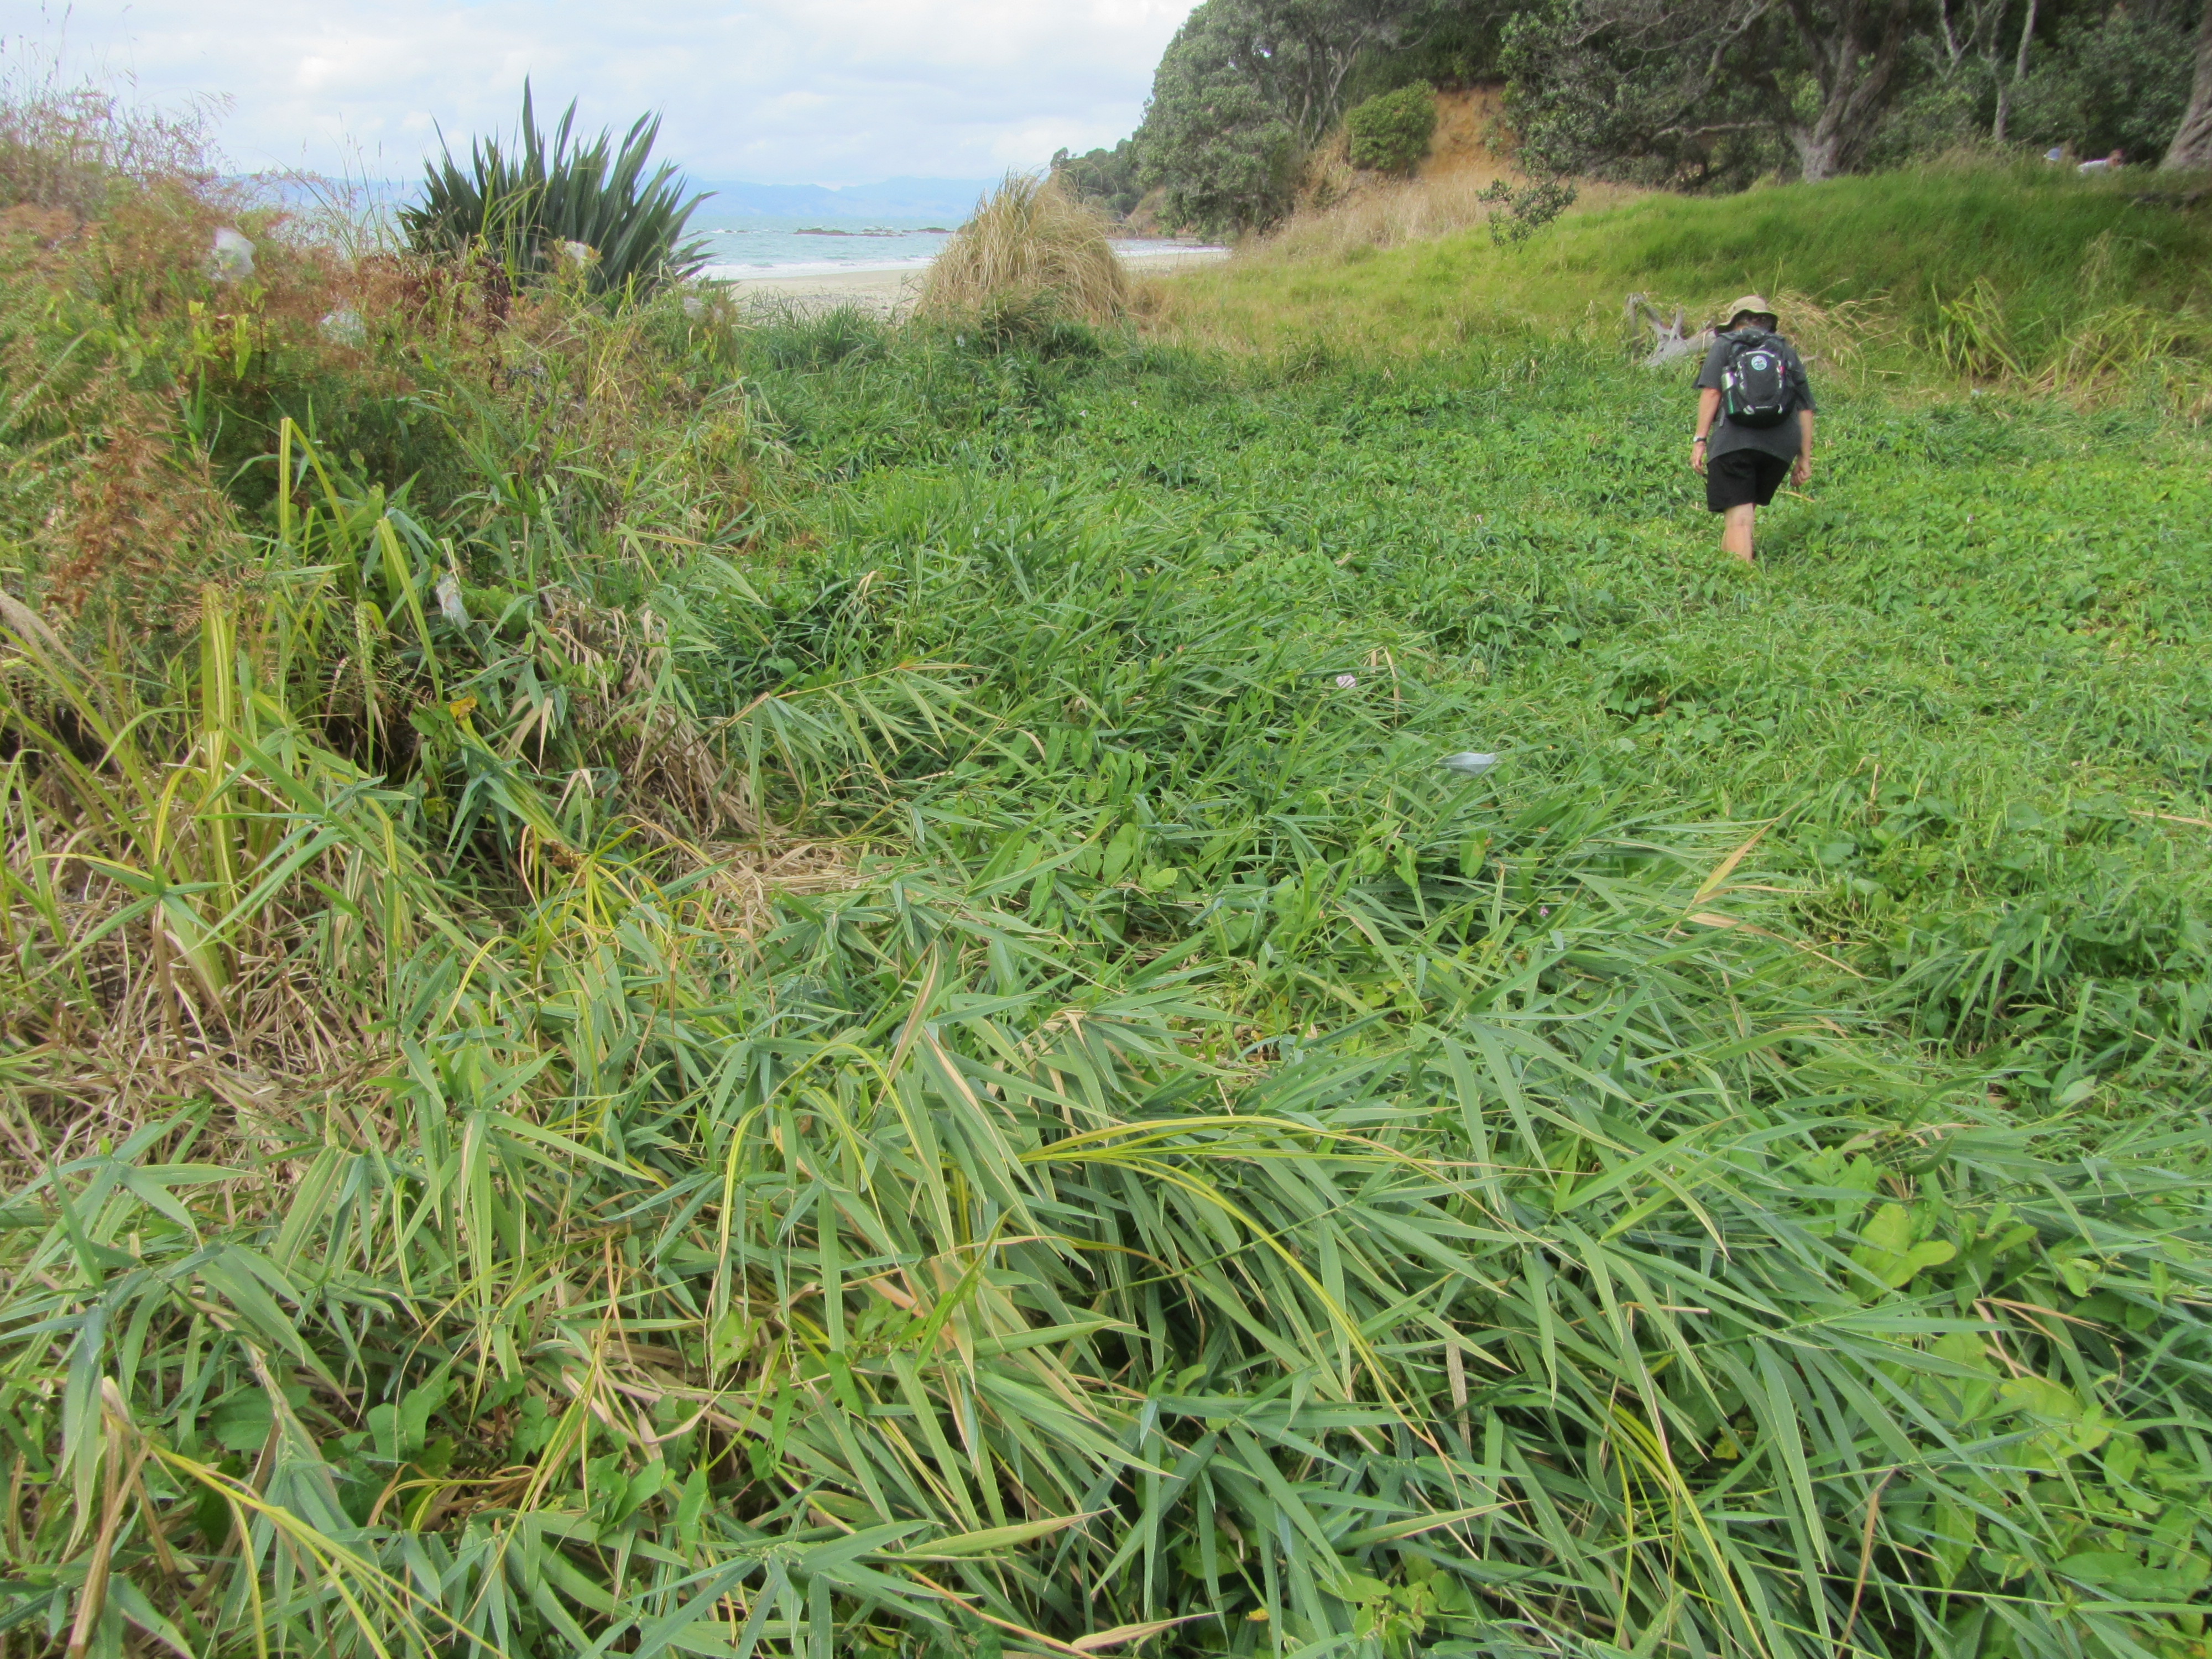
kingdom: Plantae
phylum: Tracheophyta
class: Liliopsida
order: Poales
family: Poaceae
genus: Phalaris
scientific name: Phalaris arundinacea
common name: Reed canary-grass
